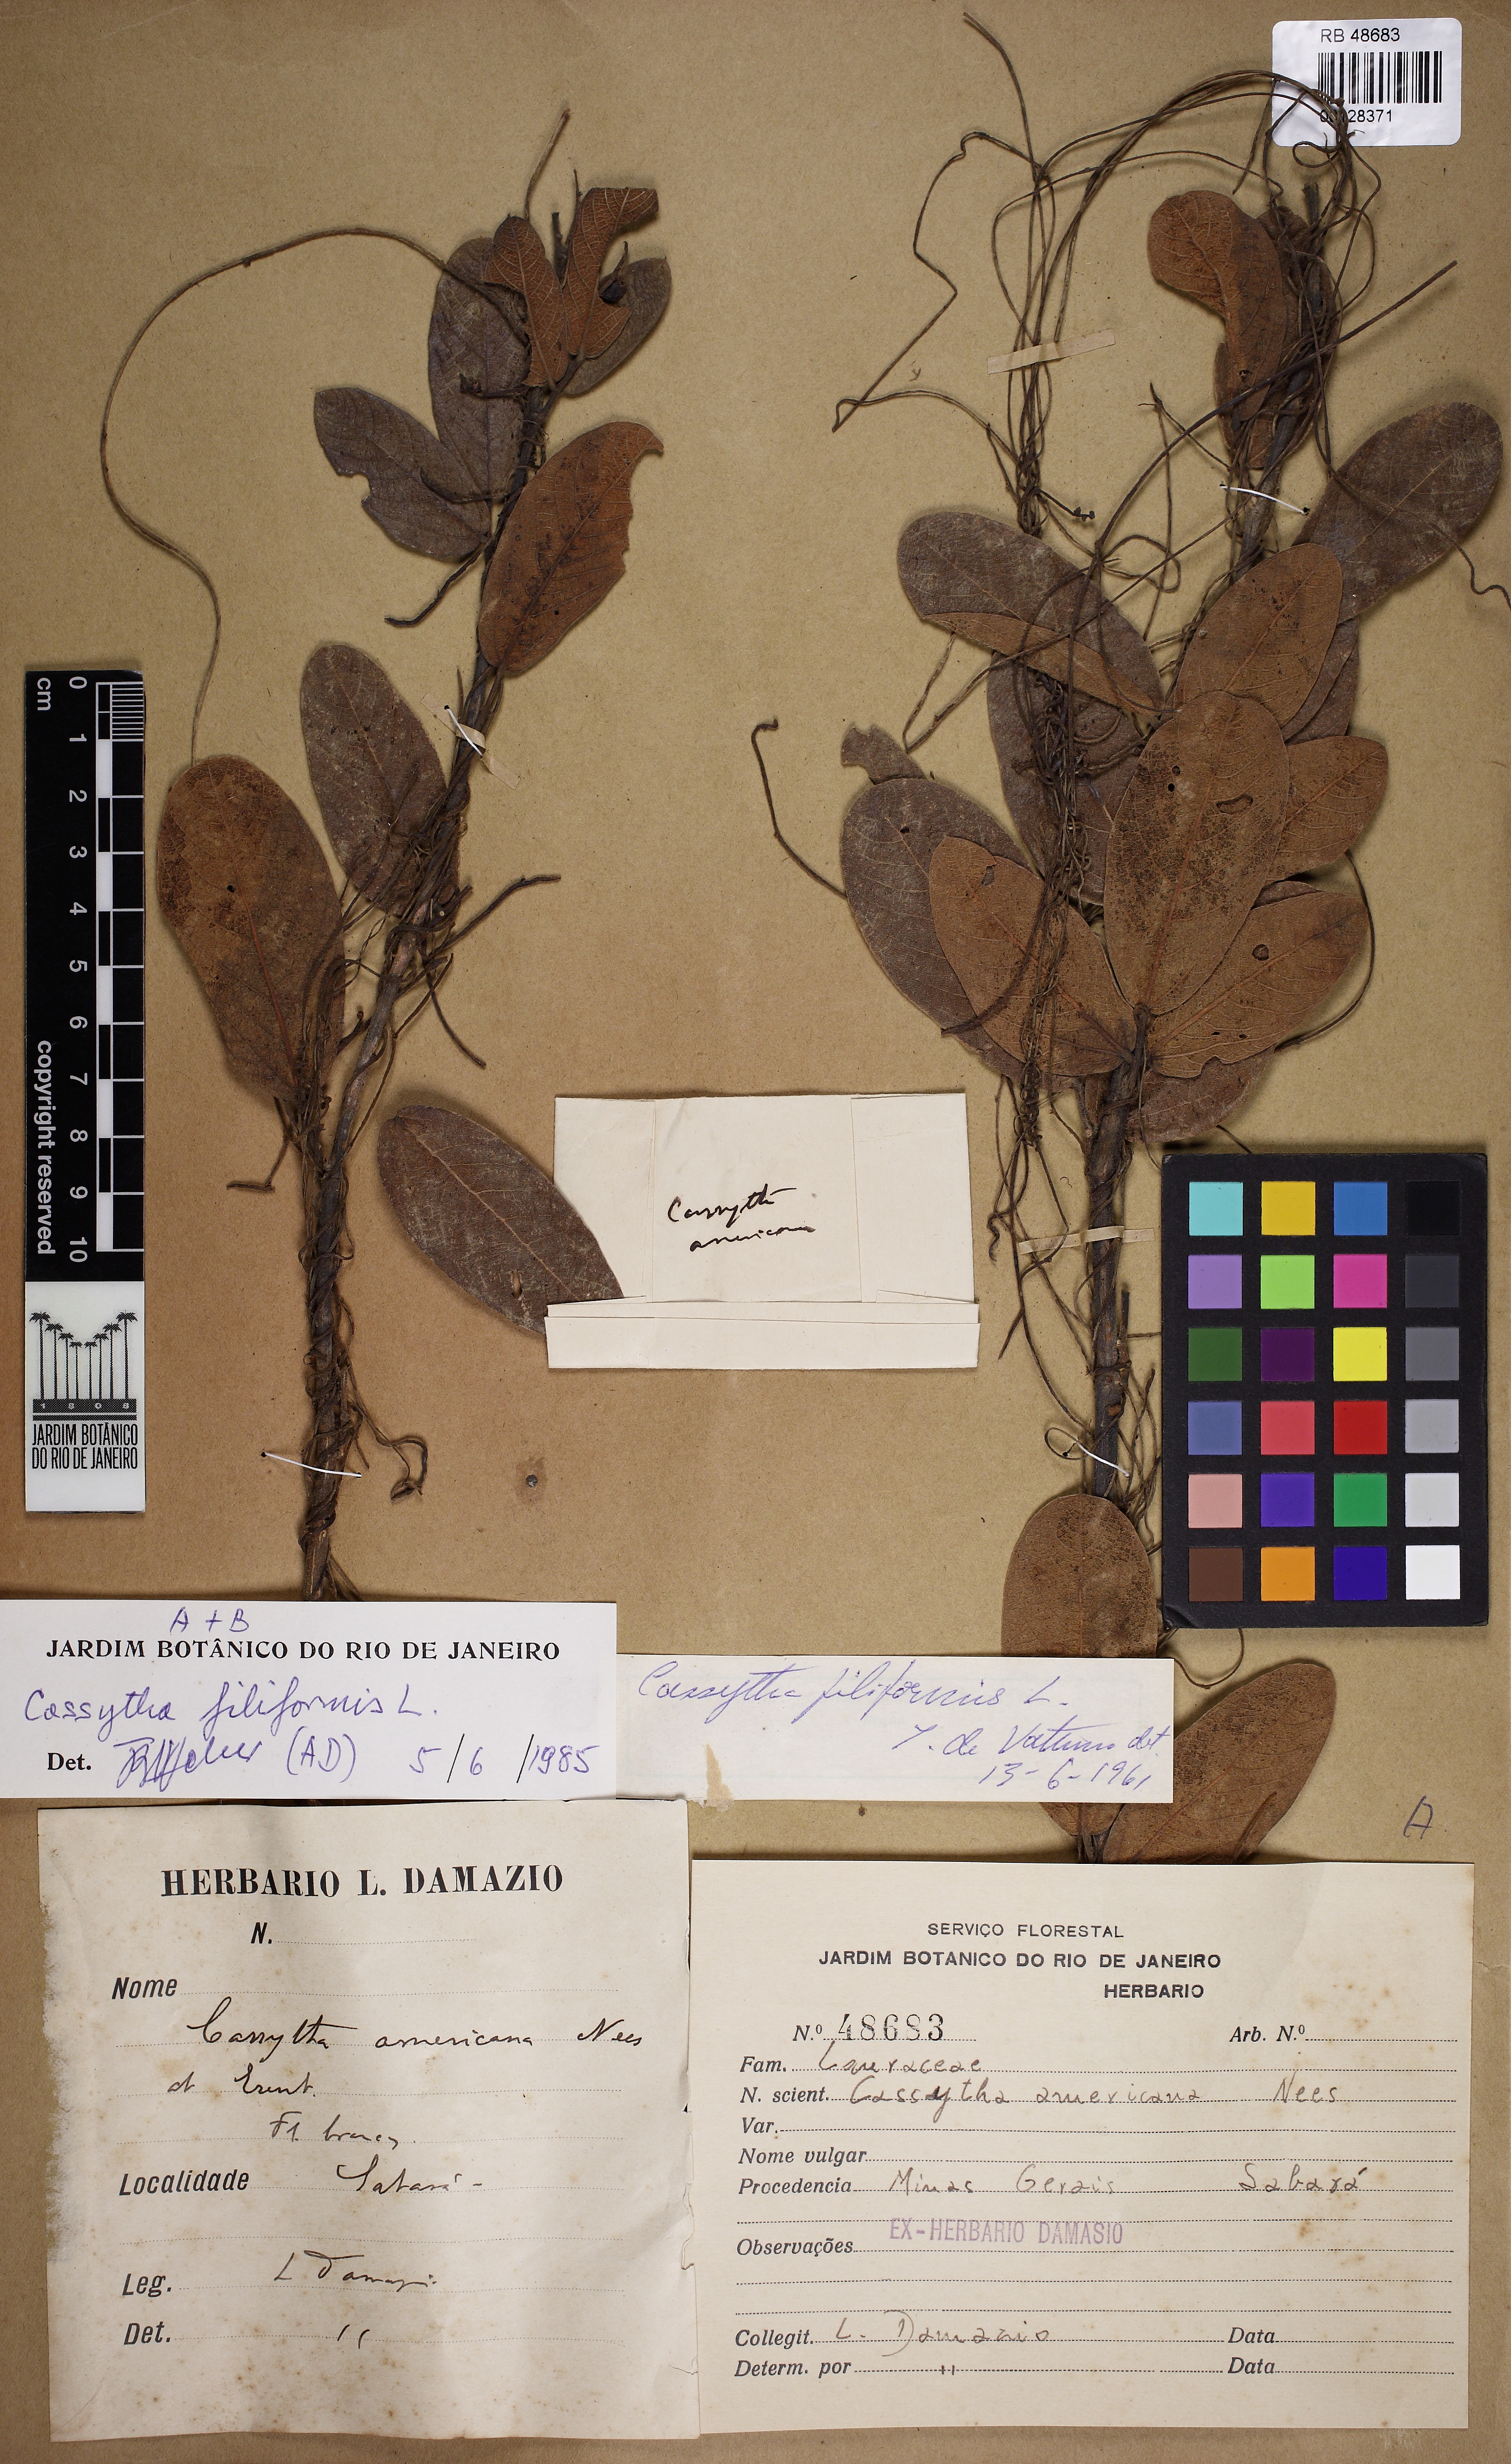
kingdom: Plantae
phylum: Tracheophyta
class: Magnoliopsida
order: Laurales
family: Lauraceae
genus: Cassytha
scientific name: Cassytha filiformis
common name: Dodder-laurel
